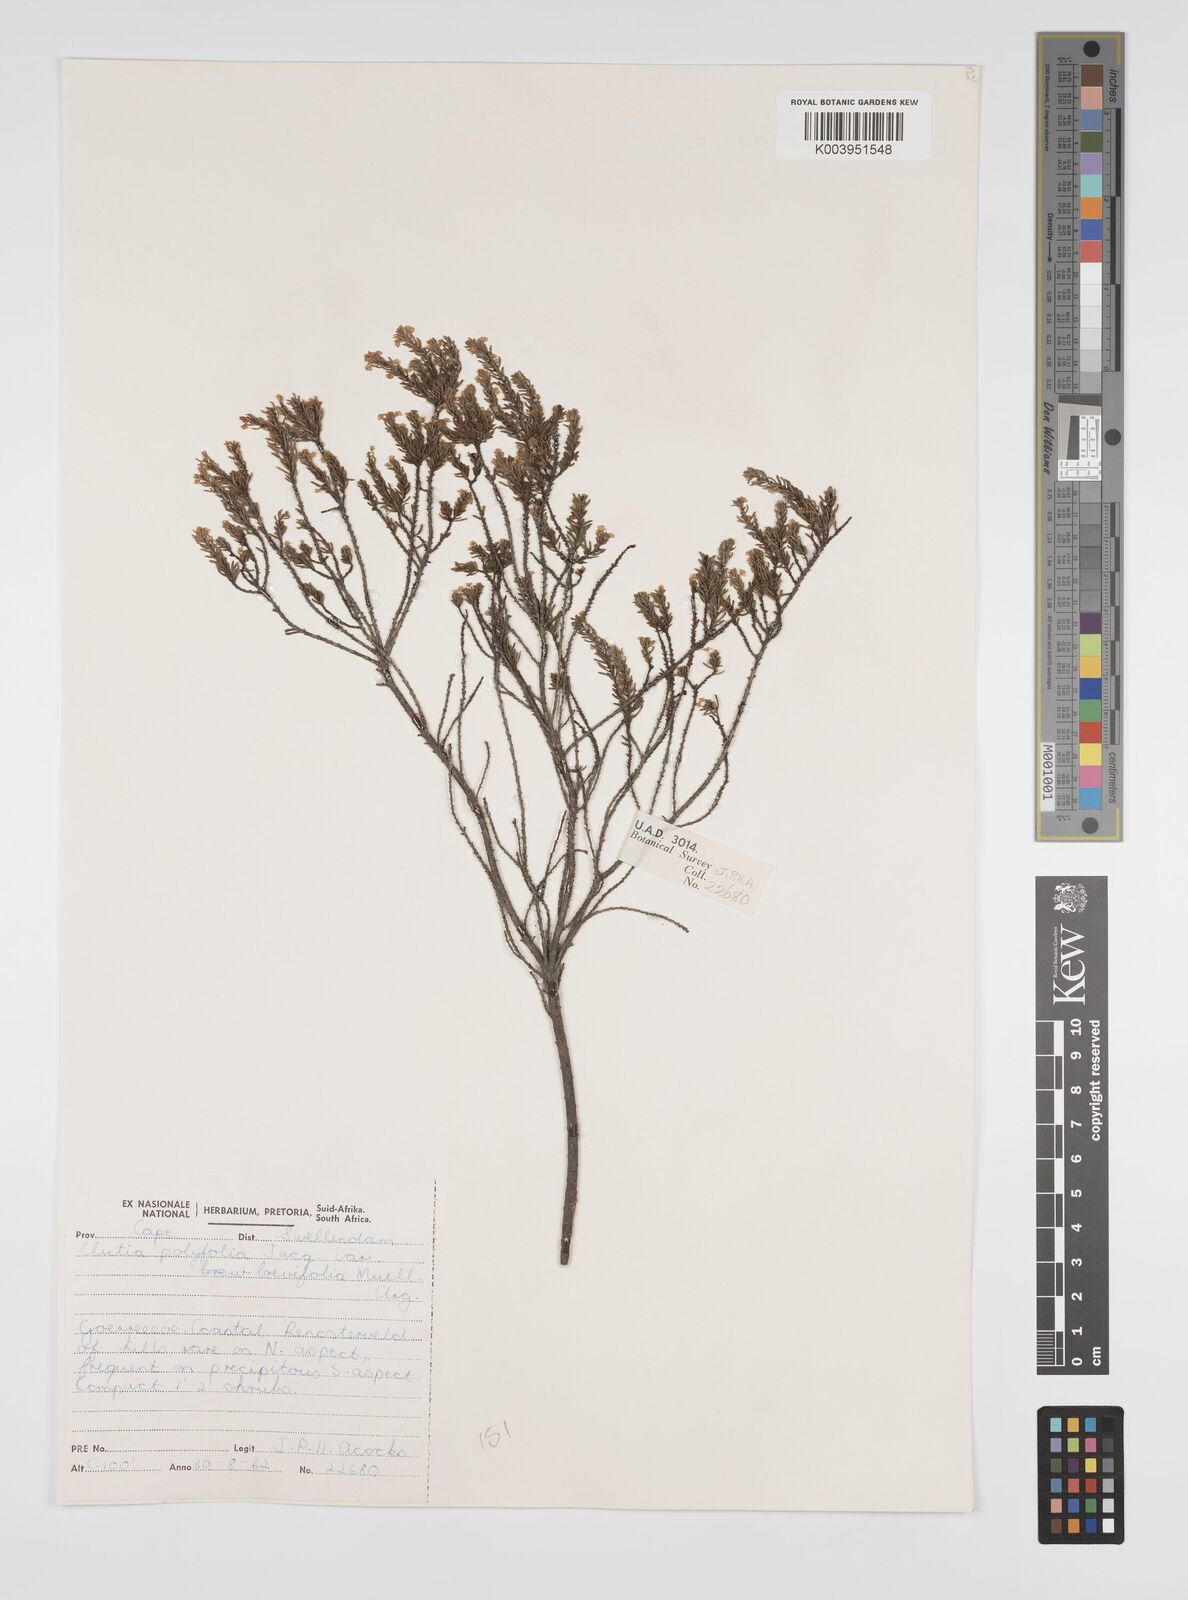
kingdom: Plantae
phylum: Tracheophyta
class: Magnoliopsida
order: Malpighiales
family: Peraceae
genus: Clutia
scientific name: Clutia
